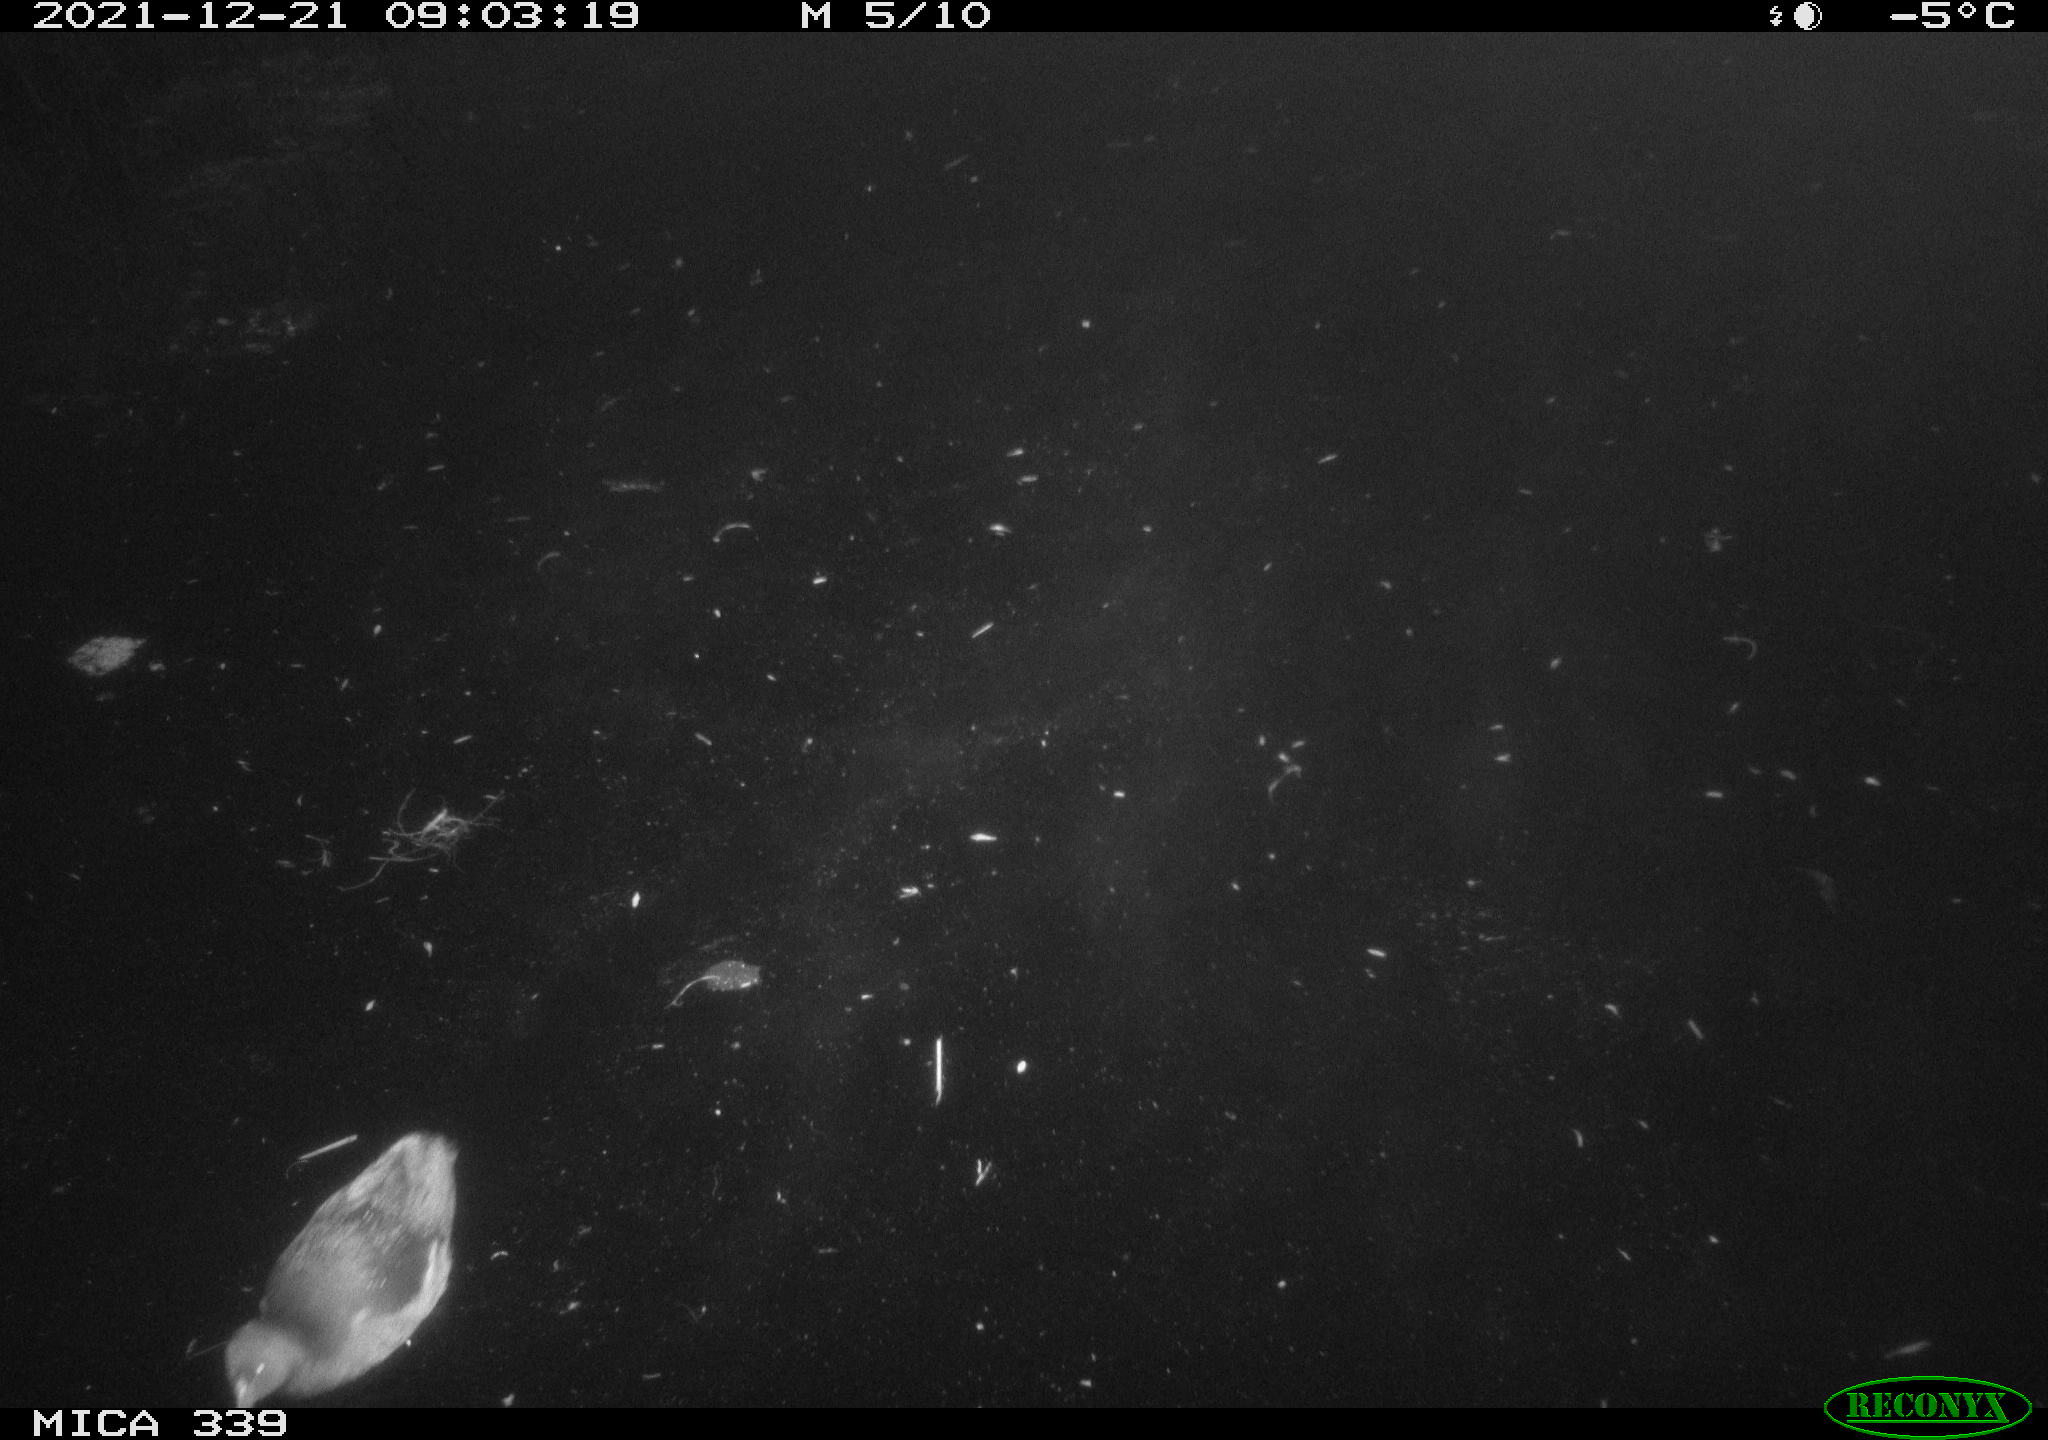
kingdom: Animalia
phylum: Chordata
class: Aves
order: Gruiformes
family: Rallidae
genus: Gallinula
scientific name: Gallinula chloropus
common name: Common moorhen
